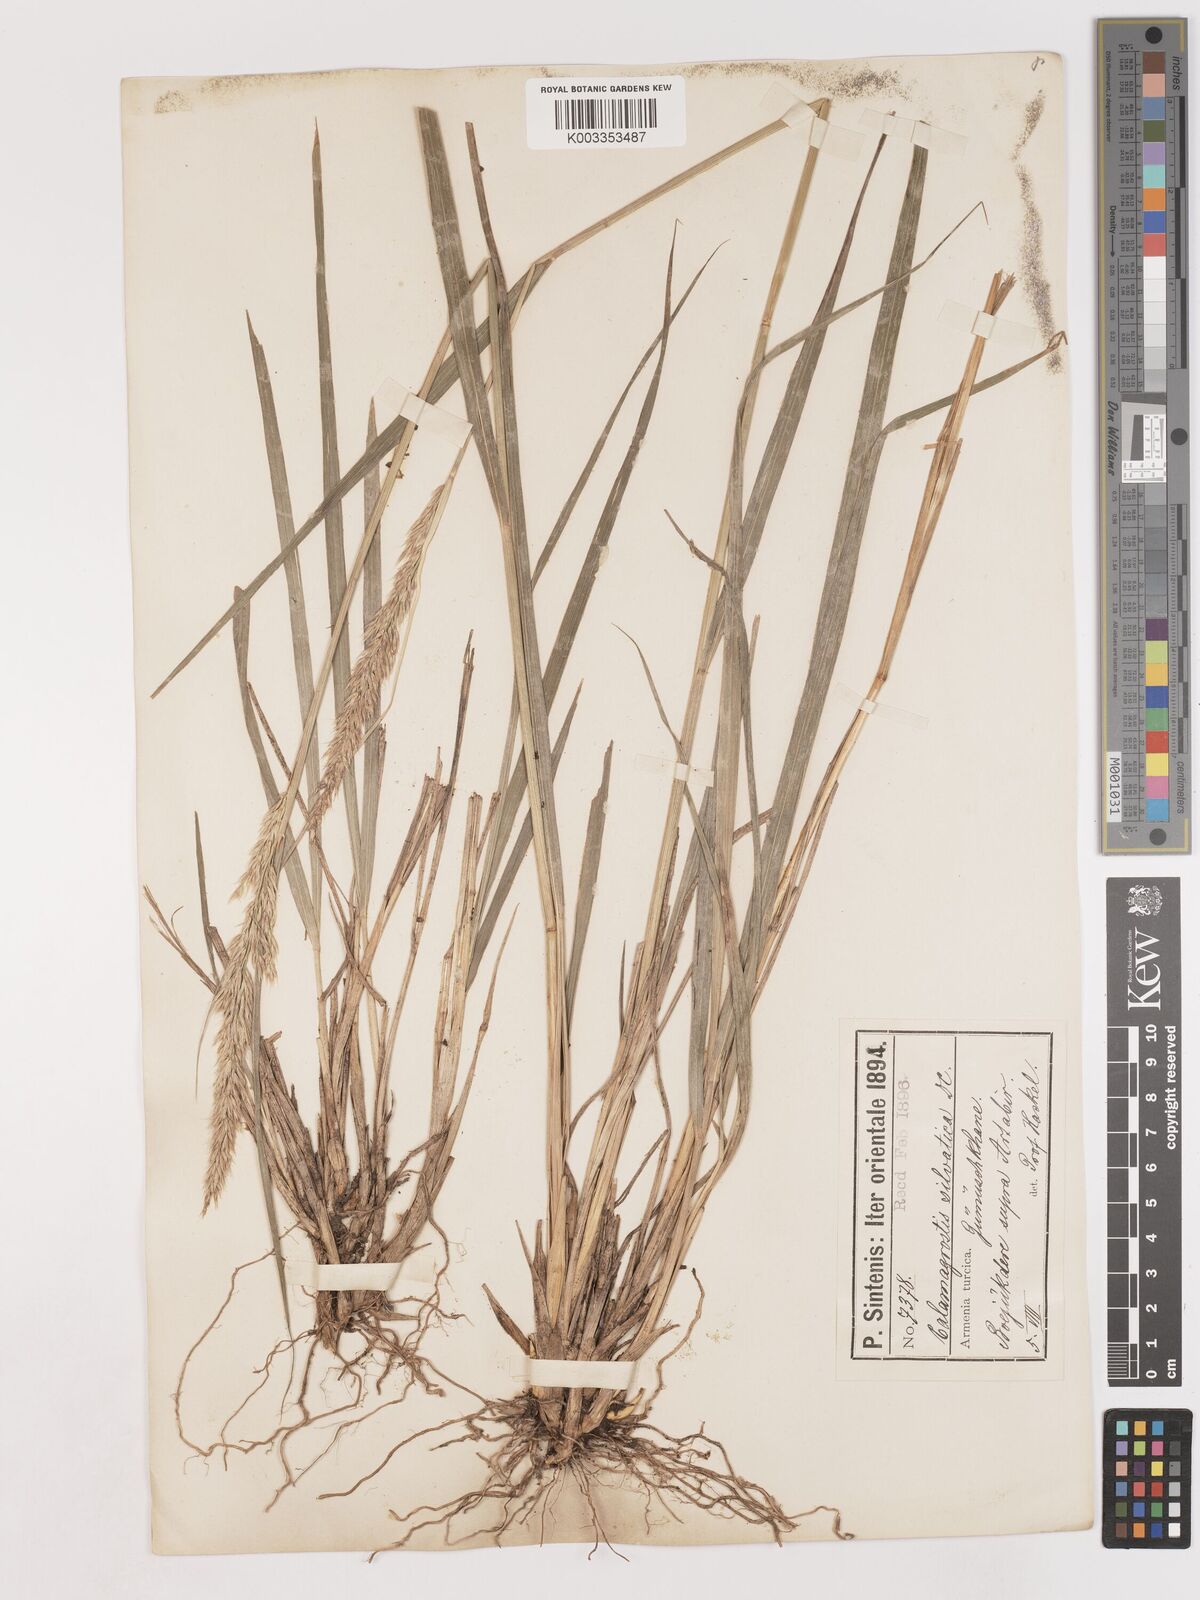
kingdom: Plantae
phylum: Tracheophyta
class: Liliopsida
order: Poales
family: Poaceae
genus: Calamagrostis
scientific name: Calamagrostis
